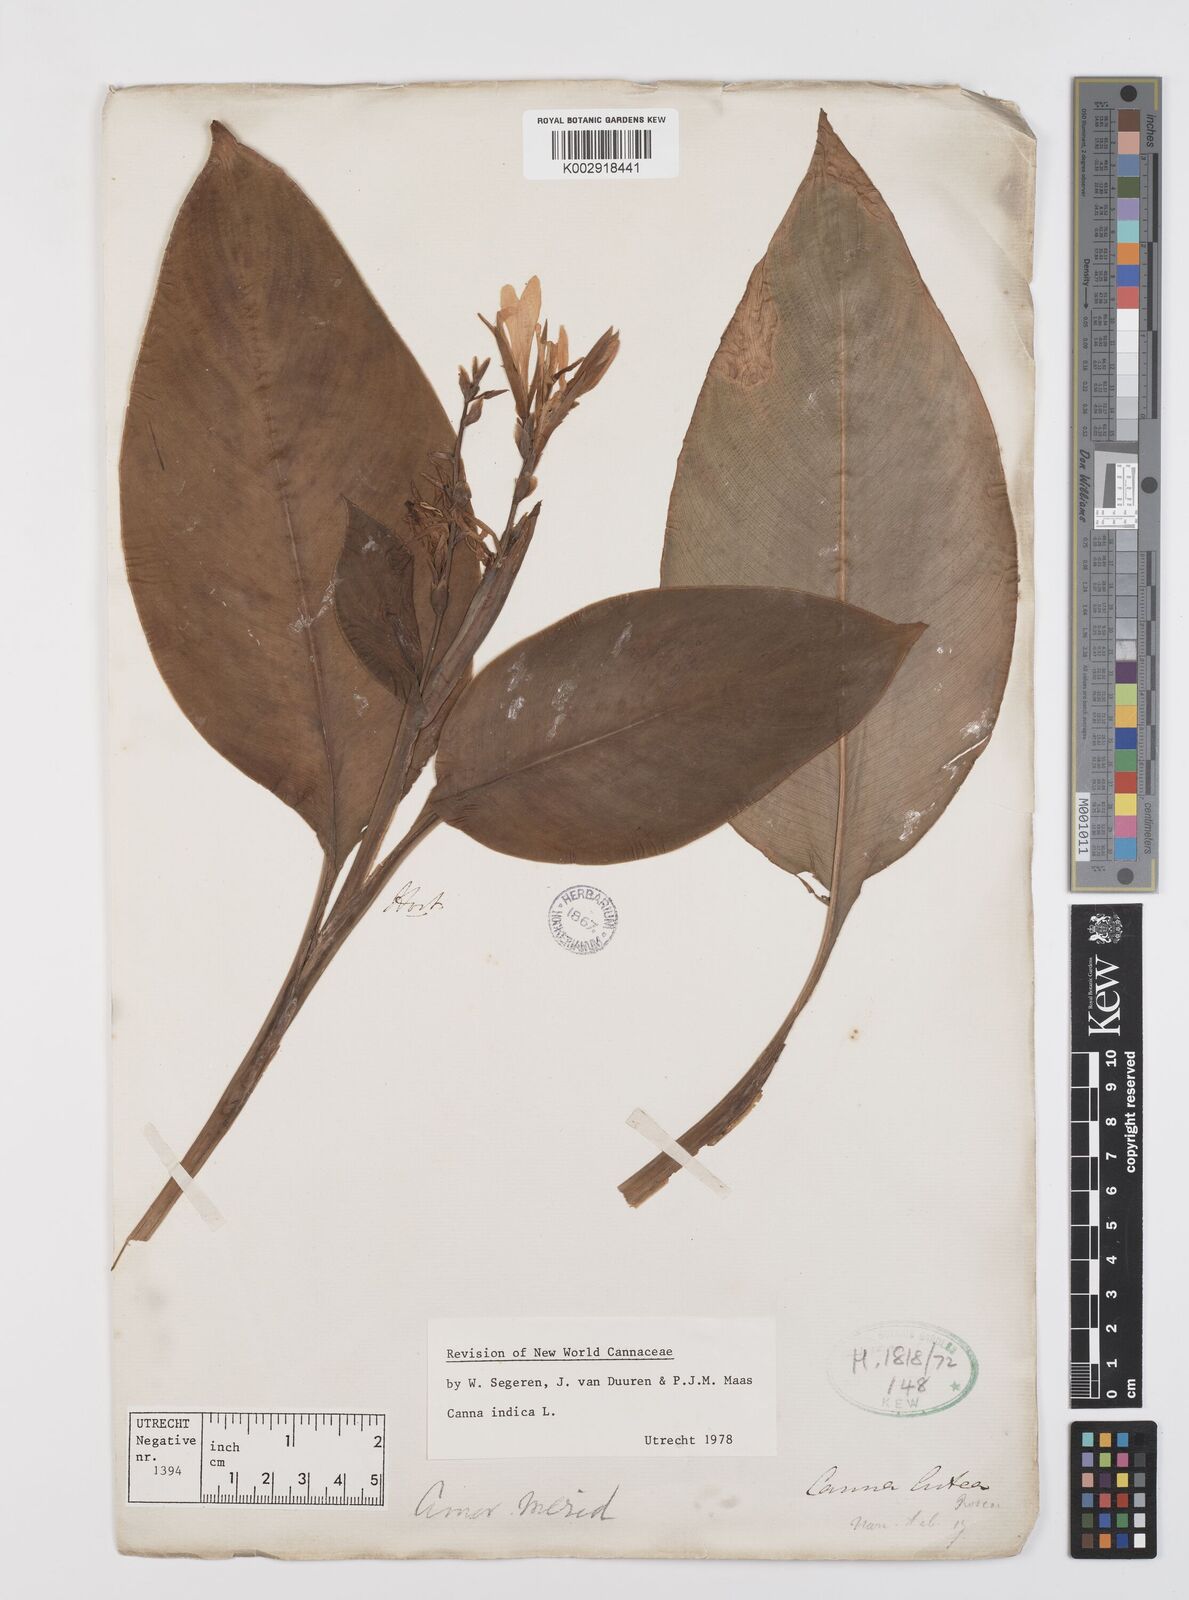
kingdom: Plantae
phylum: Tracheophyta
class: Liliopsida
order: Zingiberales
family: Cannaceae
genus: Canna
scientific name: Canna indica
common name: Indian shot
